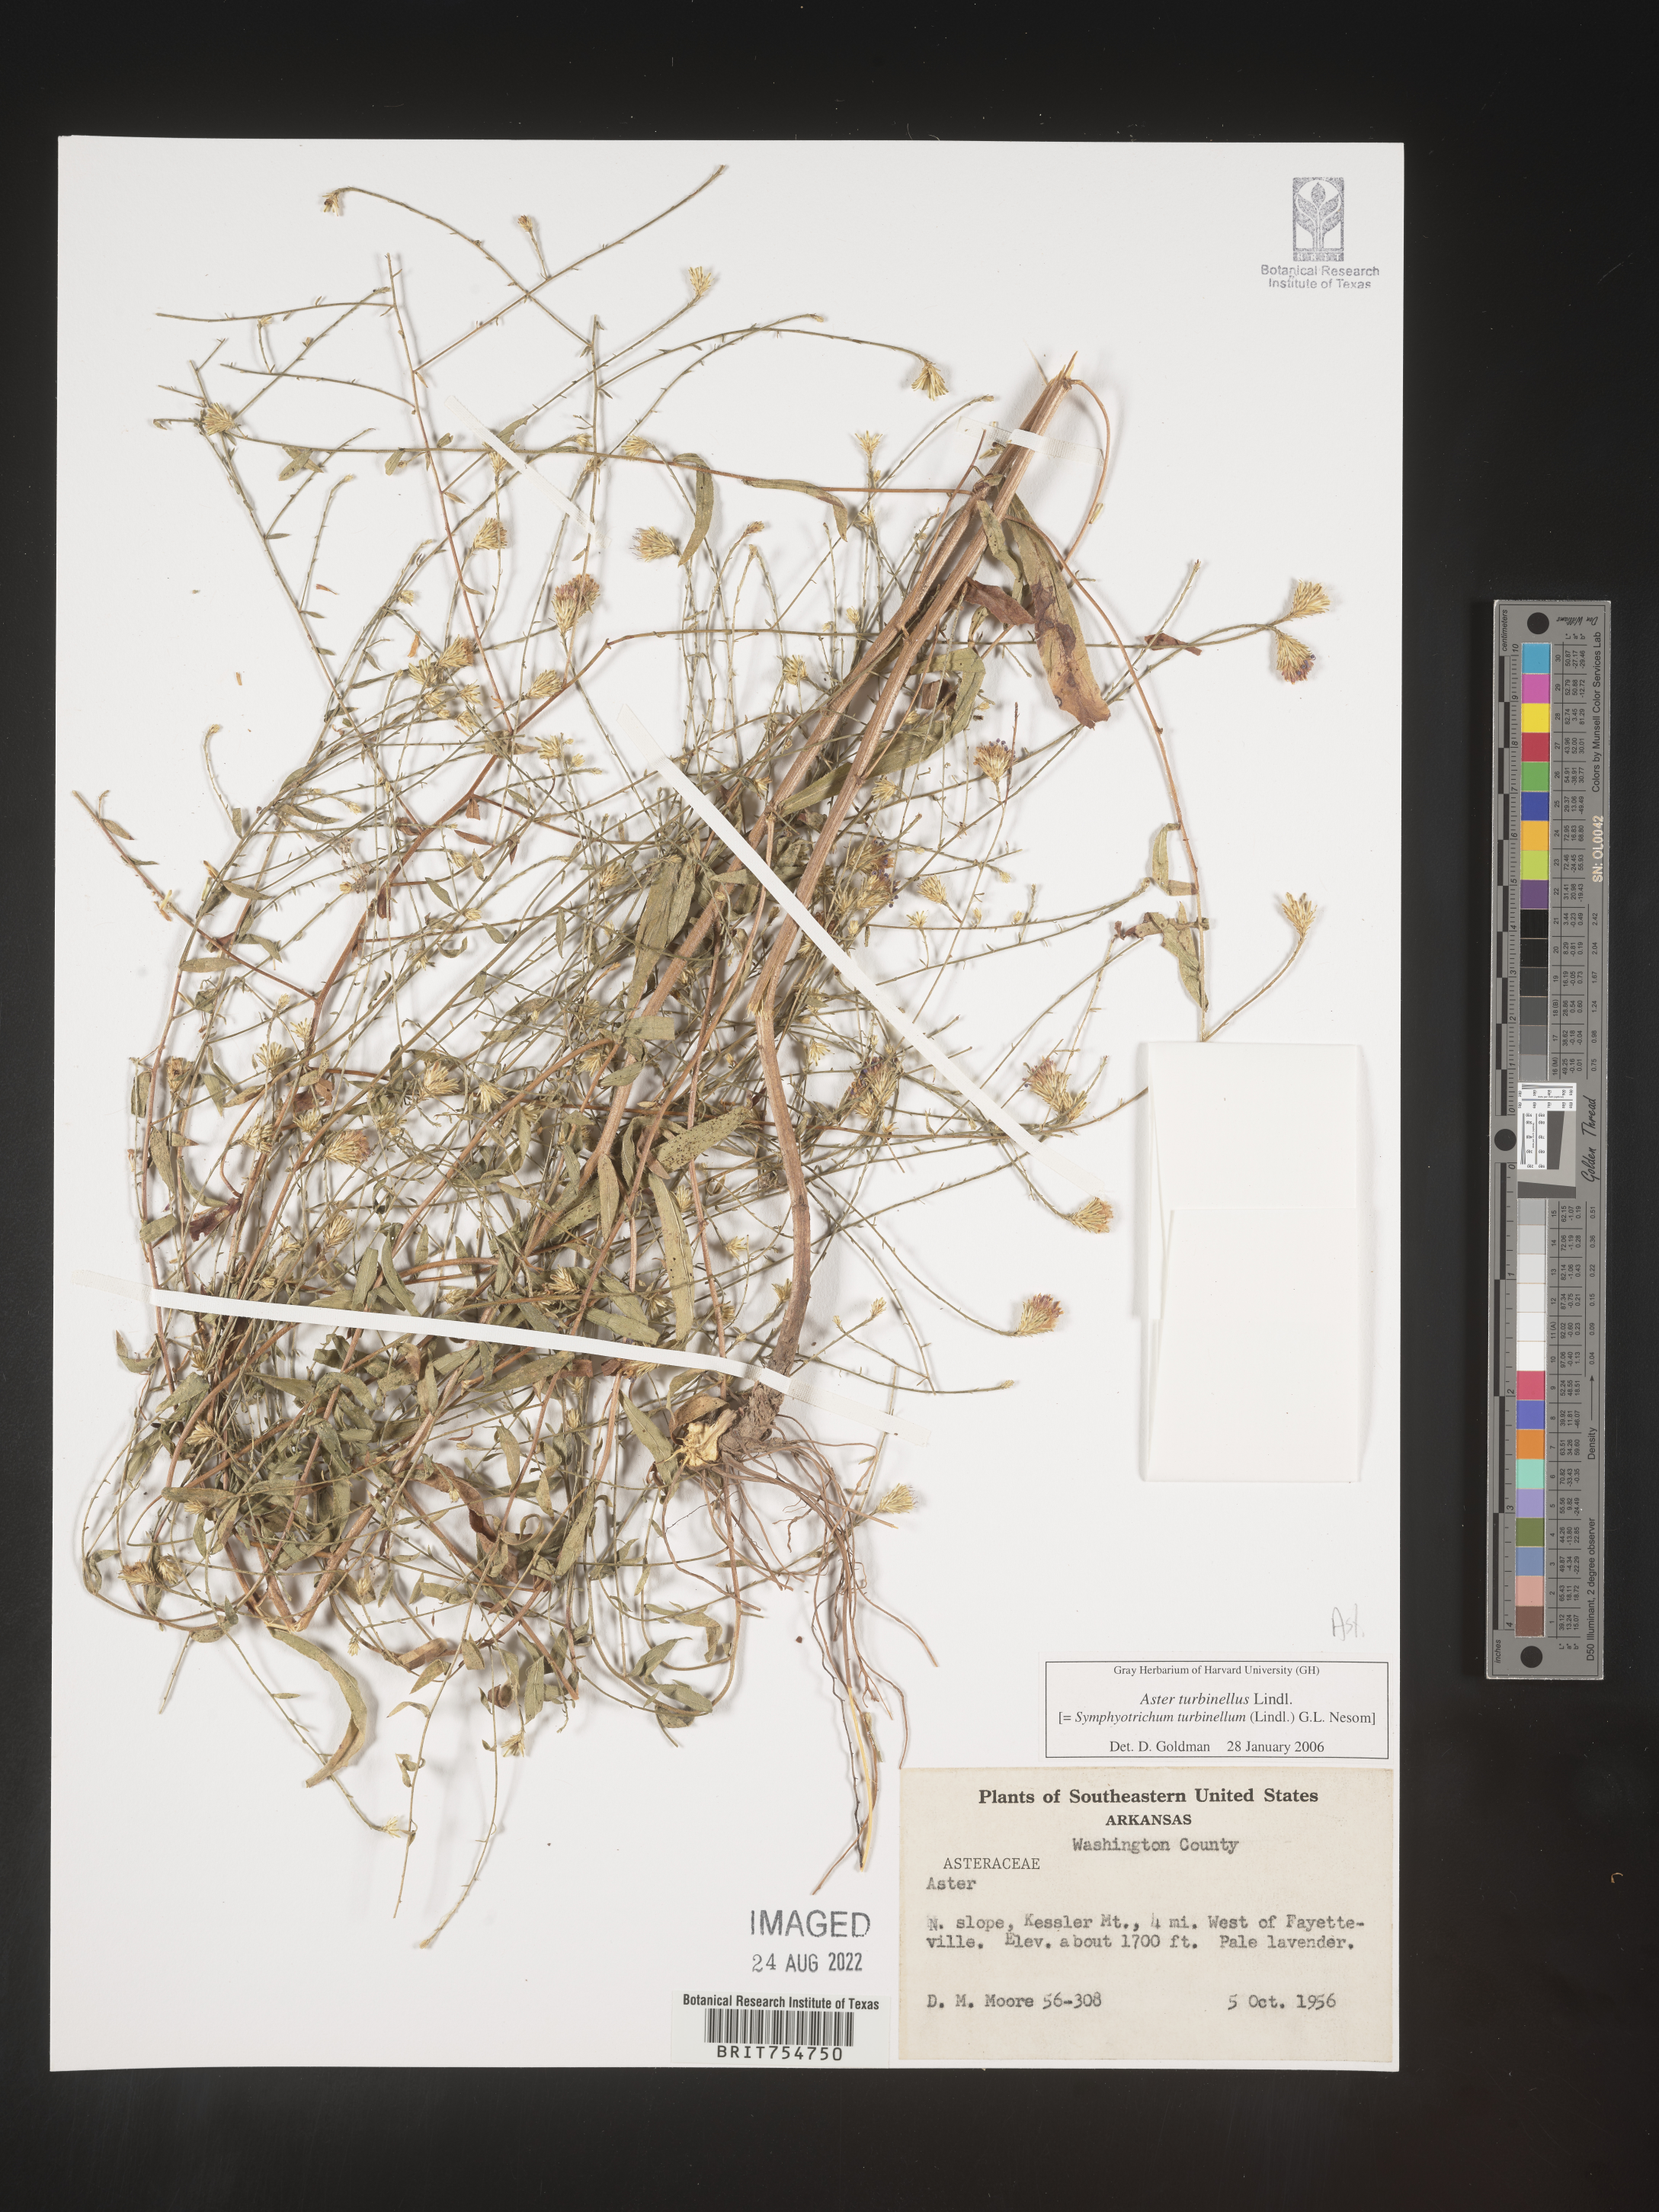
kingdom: Plantae
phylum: Tracheophyta
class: Magnoliopsida
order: Asterales
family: Asteraceae
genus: Symphyotrichum
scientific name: Symphyotrichum turbinellum
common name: Prairie aster
